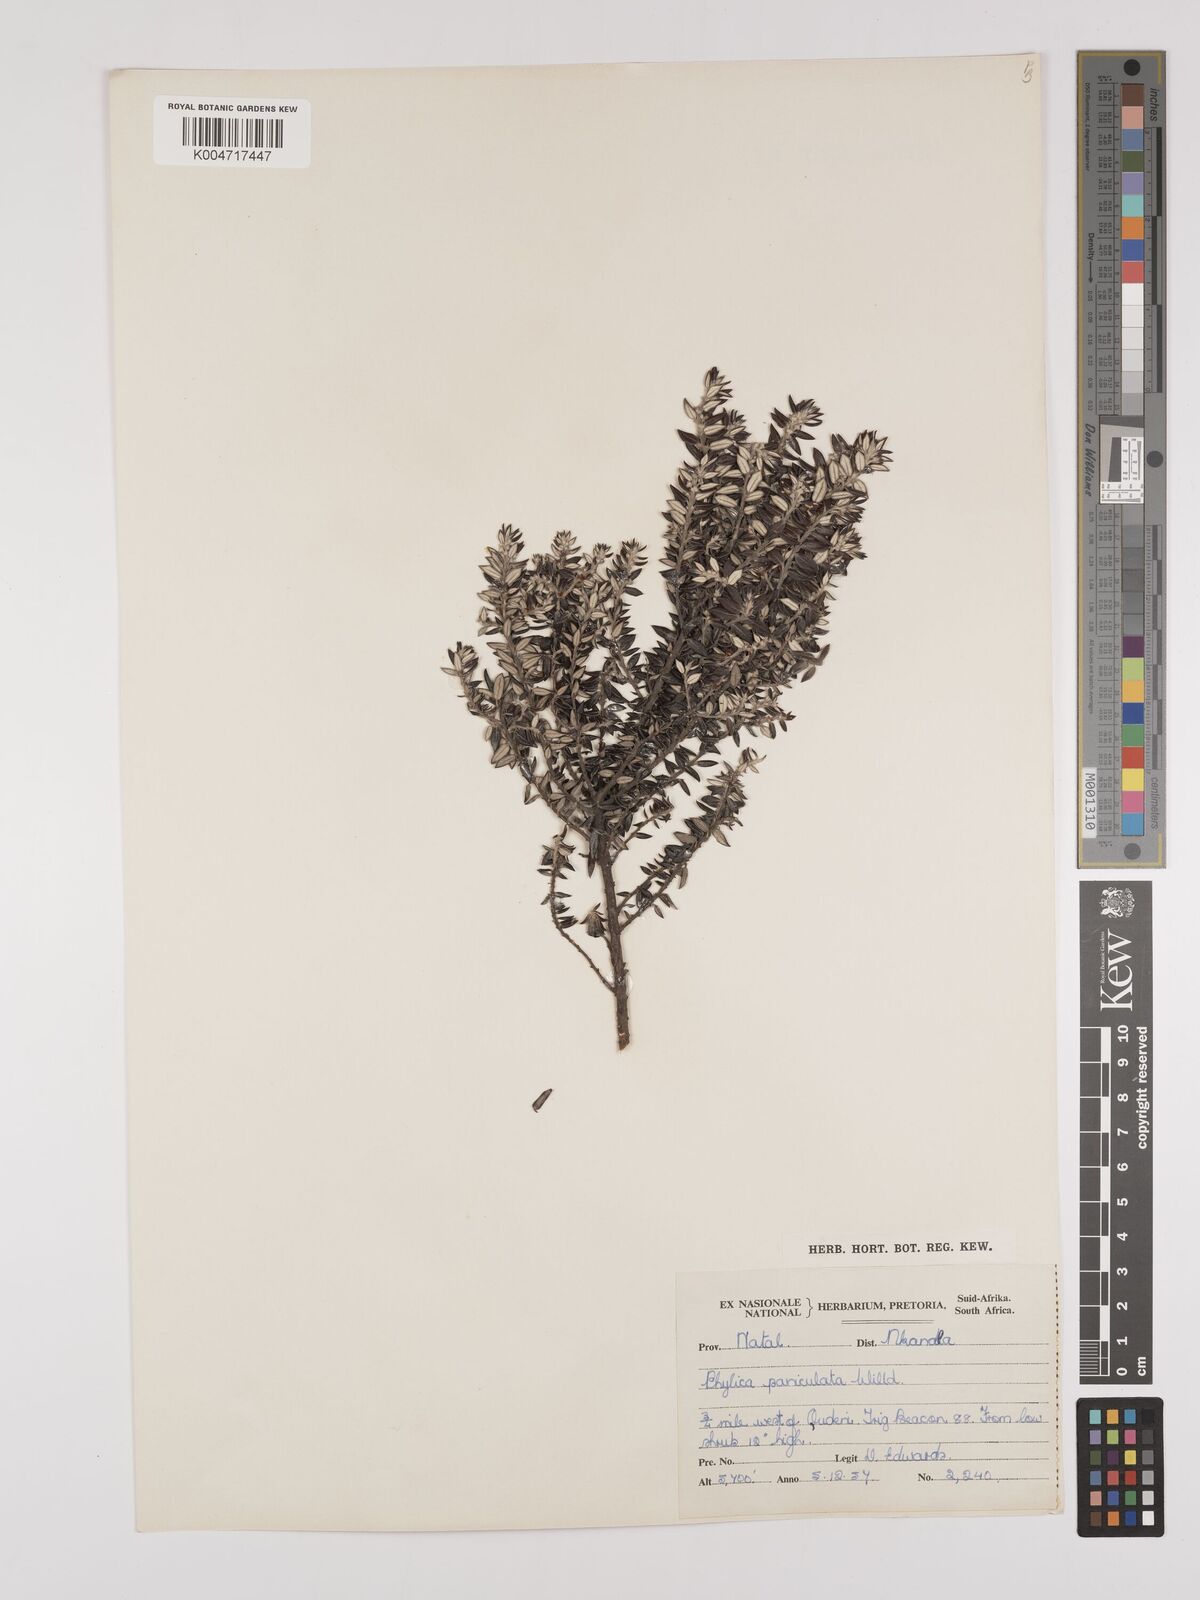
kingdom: Plantae
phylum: Tracheophyta
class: Magnoliopsida
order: Rosales
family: Rhamnaceae
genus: Phylica
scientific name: Phylica paniculata
